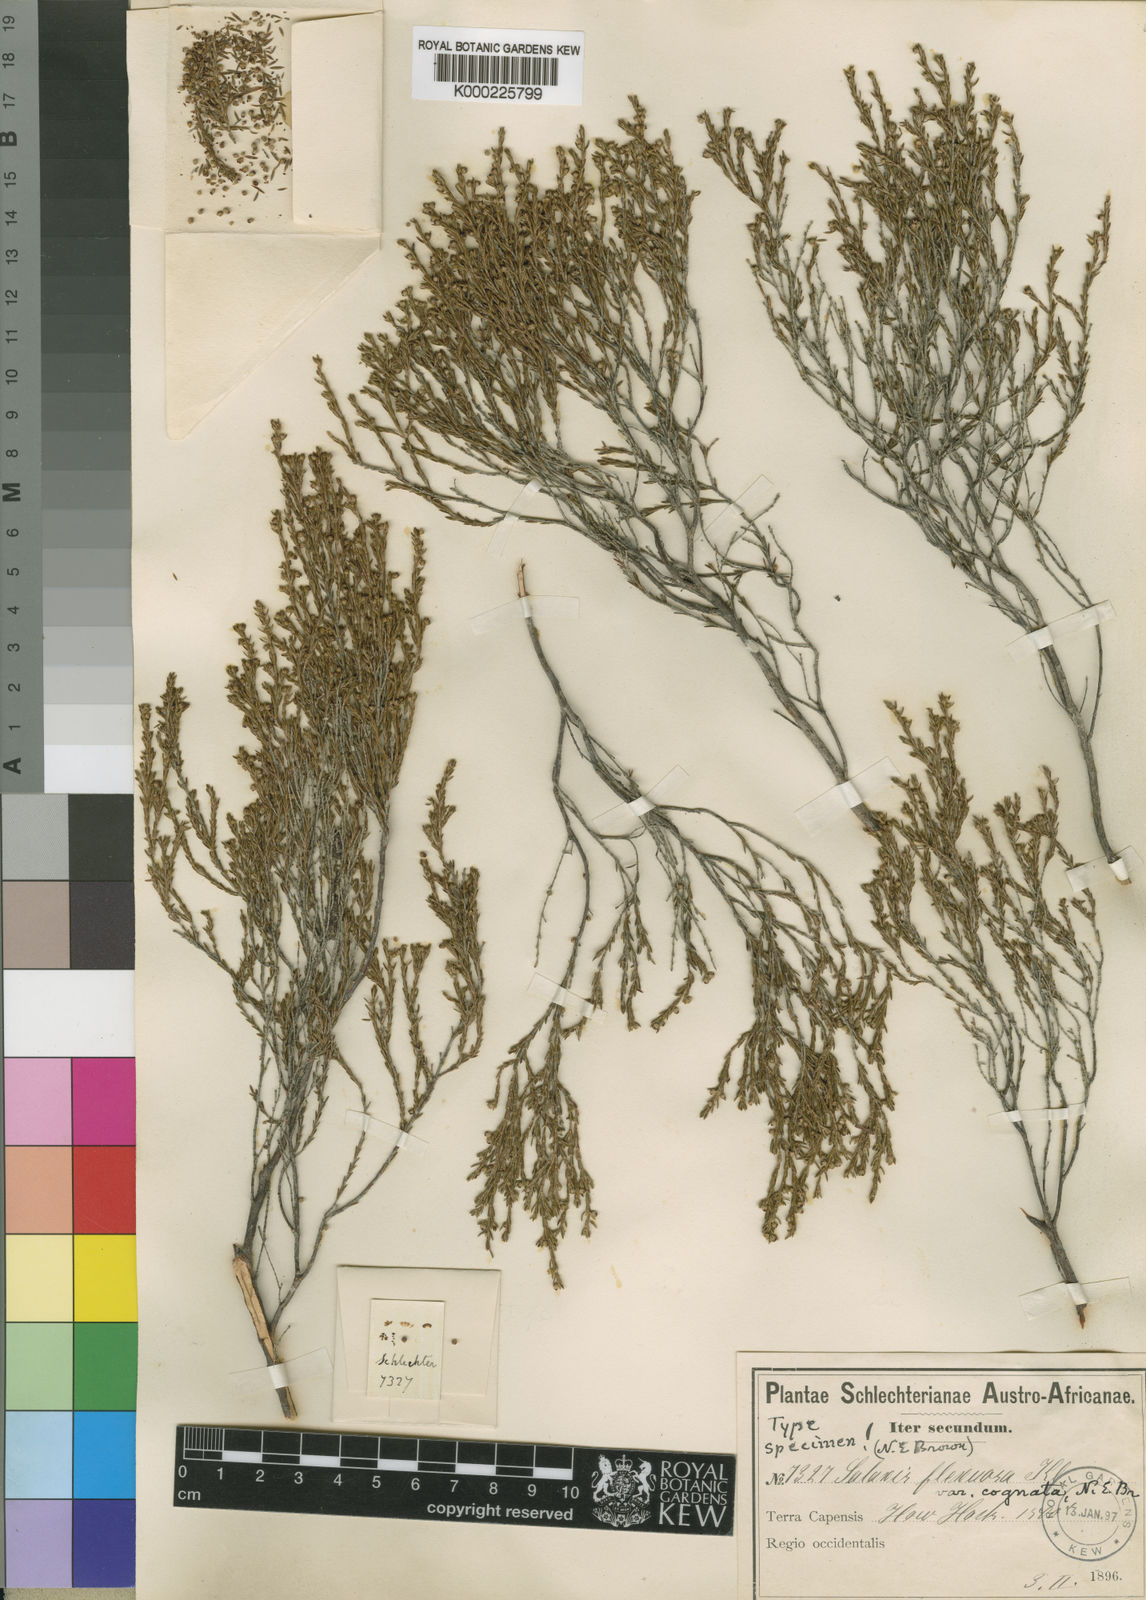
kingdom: Plantae
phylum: Tracheophyta
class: Magnoliopsida
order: Ericales
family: Ericaceae
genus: Erica
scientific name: Erica axillaris
